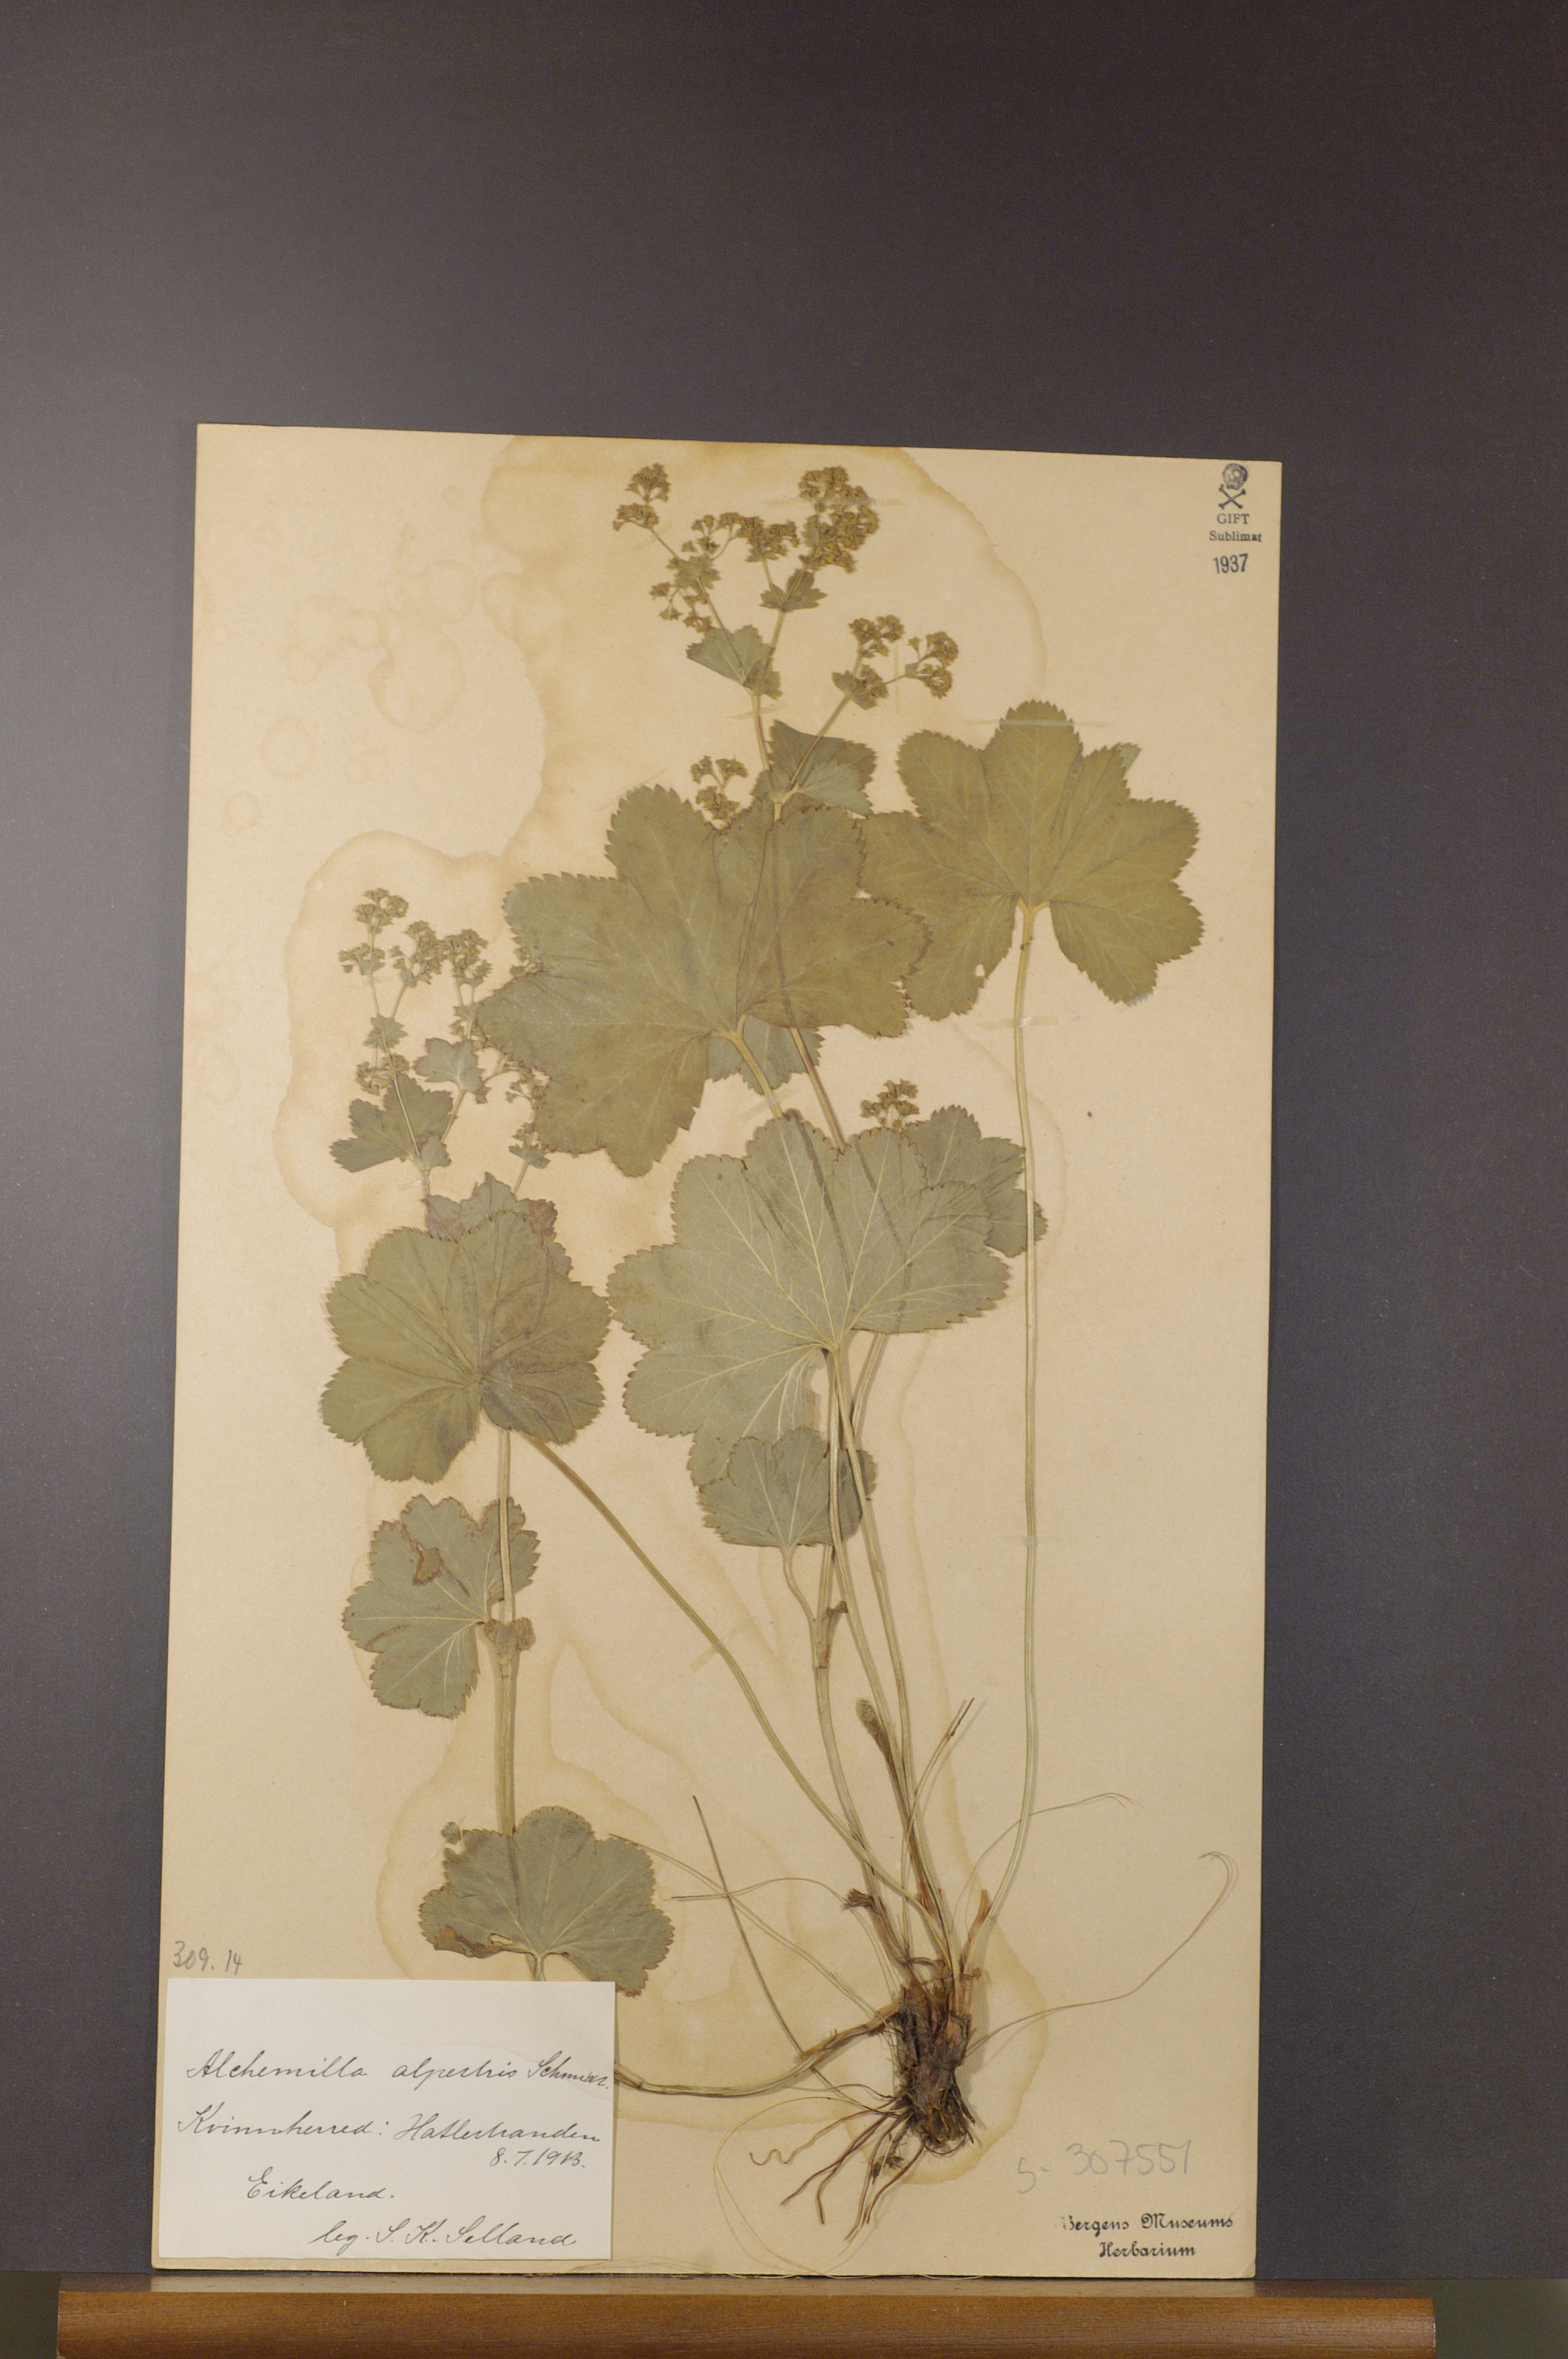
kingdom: Plantae
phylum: Tracheophyta
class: Magnoliopsida
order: Rosales
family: Rosaceae
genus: Alchemilla
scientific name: Alchemilla glabra
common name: Smooth lady's-mantle
